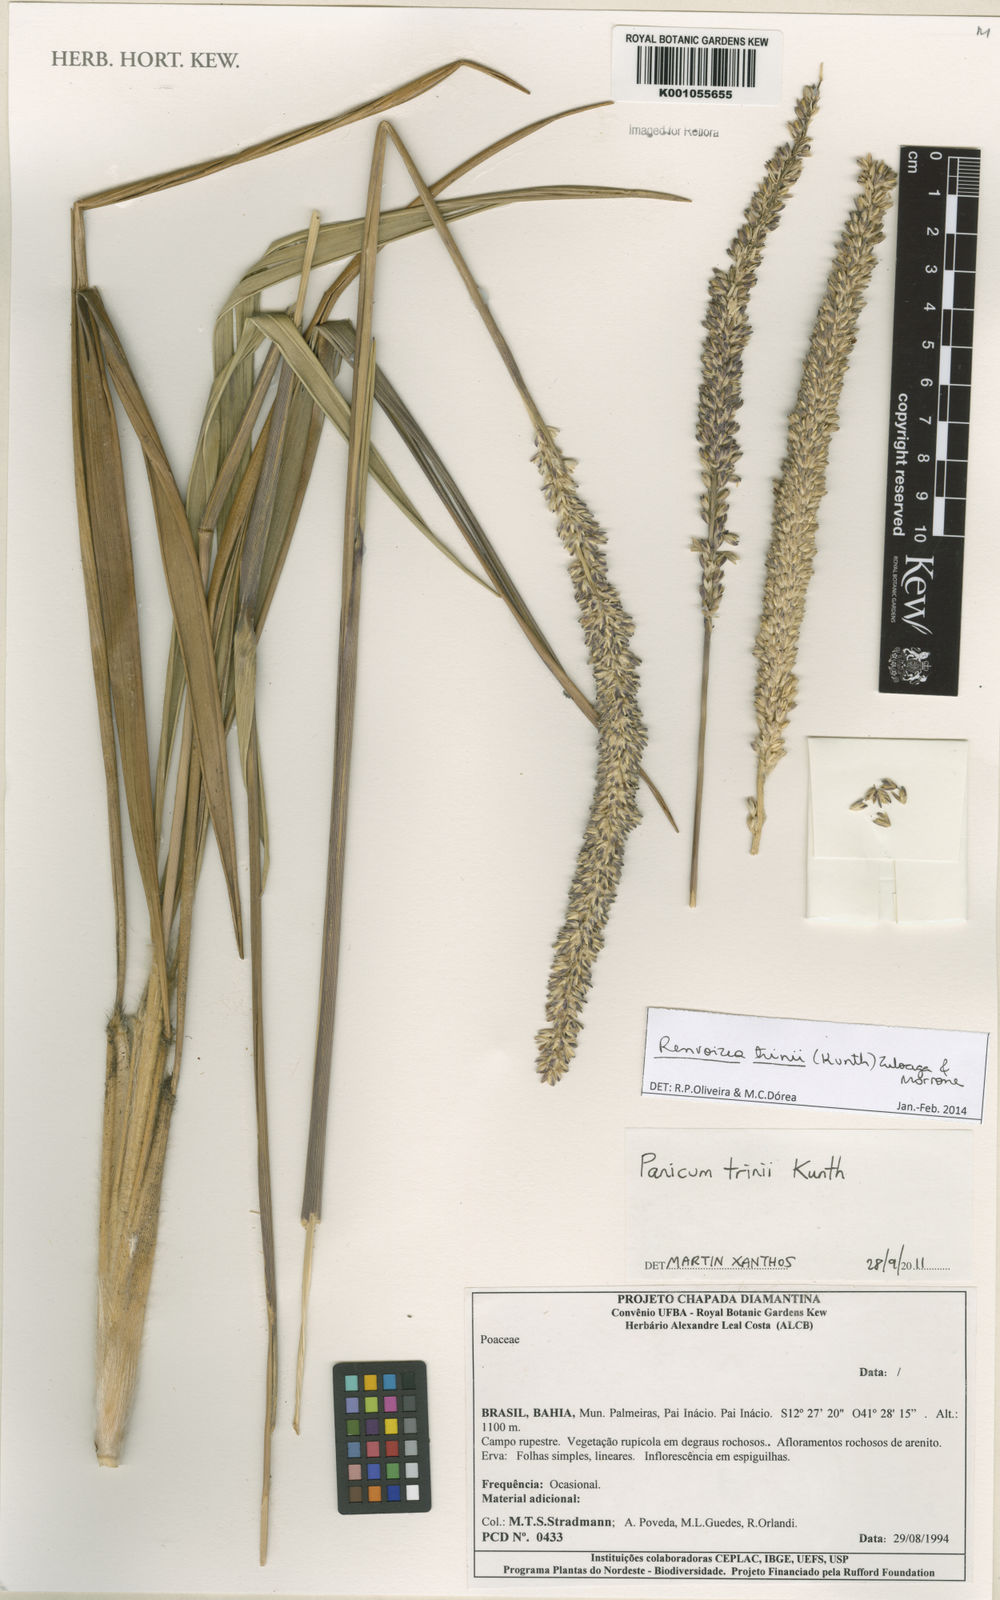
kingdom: Plantae
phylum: Tracheophyta
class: Liliopsida
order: Poales
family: Poaceae
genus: Renvoizea
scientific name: Renvoizea trinii
